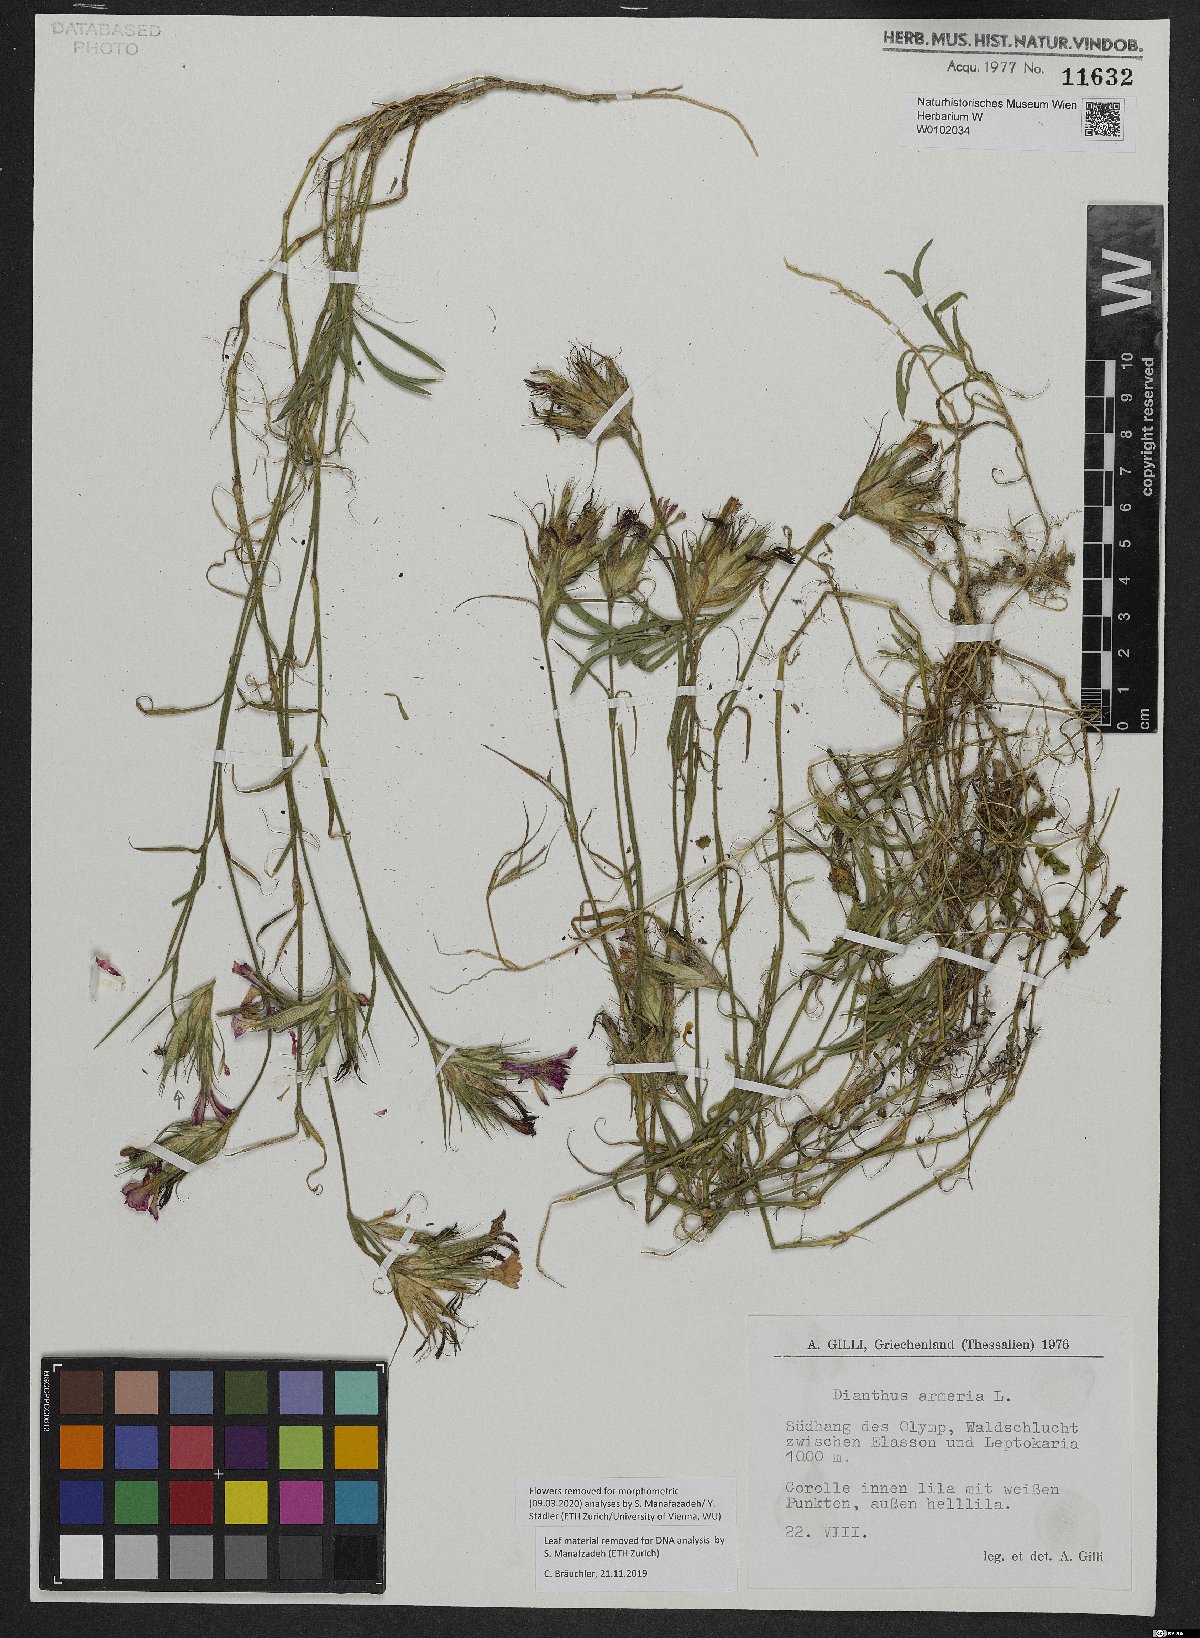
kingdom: Plantae
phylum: Tracheophyta
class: Magnoliopsida
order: Caryophyllales
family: Caryophyllaceae
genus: Dianthus
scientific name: Dianthus armeria
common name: Deptford pink
